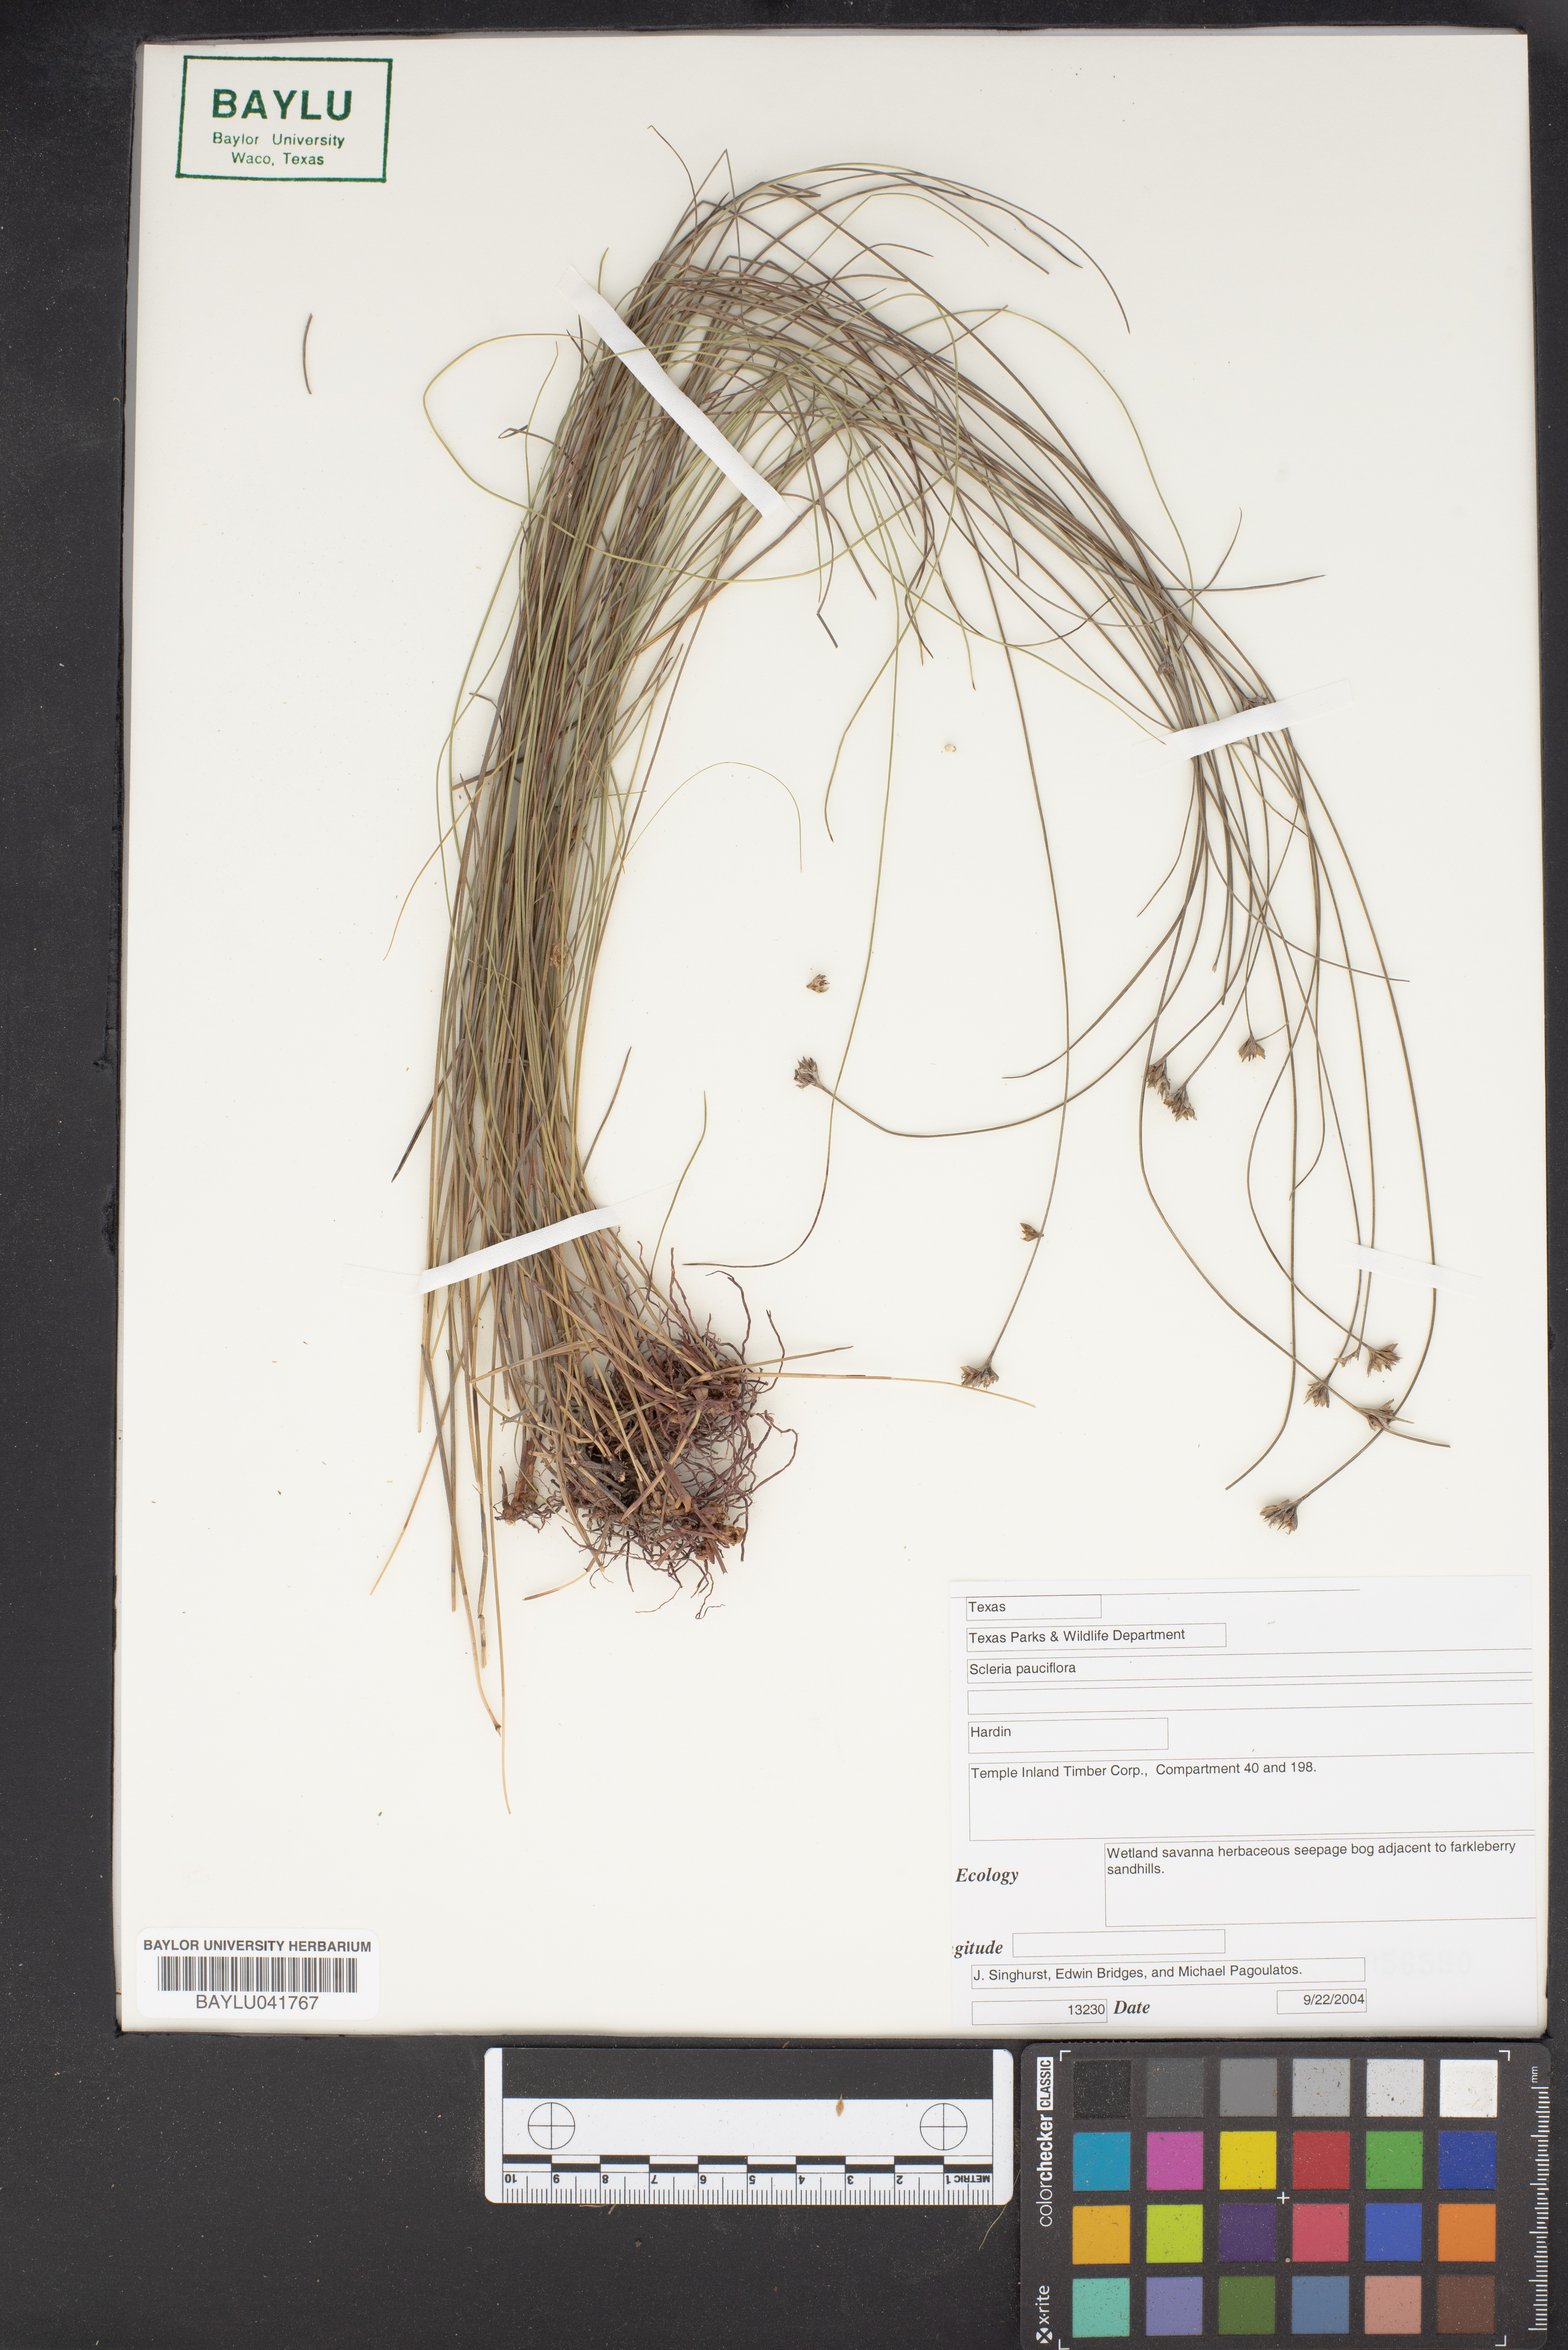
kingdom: Plantae
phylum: Tracheophyta
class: Liliopsida
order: Poales
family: Cyperaceae
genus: Scleria
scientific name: Scleria pauciflora
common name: Few-flowered nutrush
